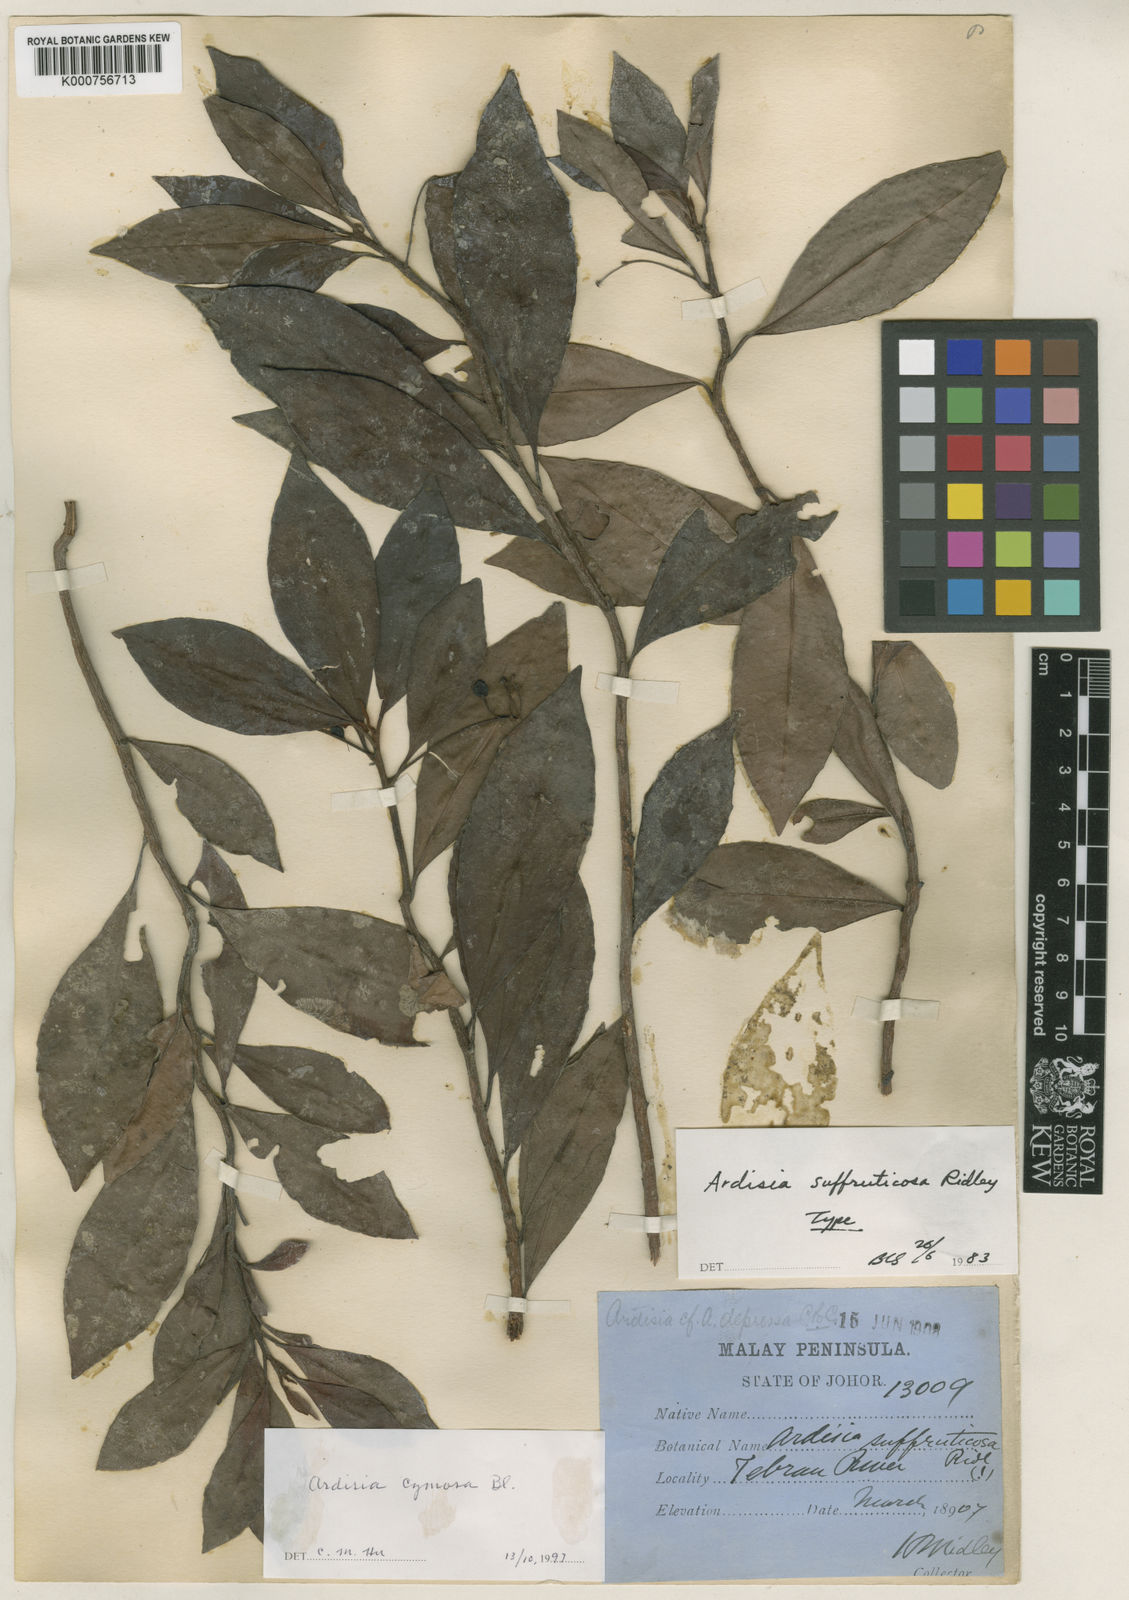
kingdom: Plantae
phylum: Tracheophyta
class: Magnoliopsida
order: Ericales
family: Primulaceae
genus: Ardisia
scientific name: Ardisia cymosa
